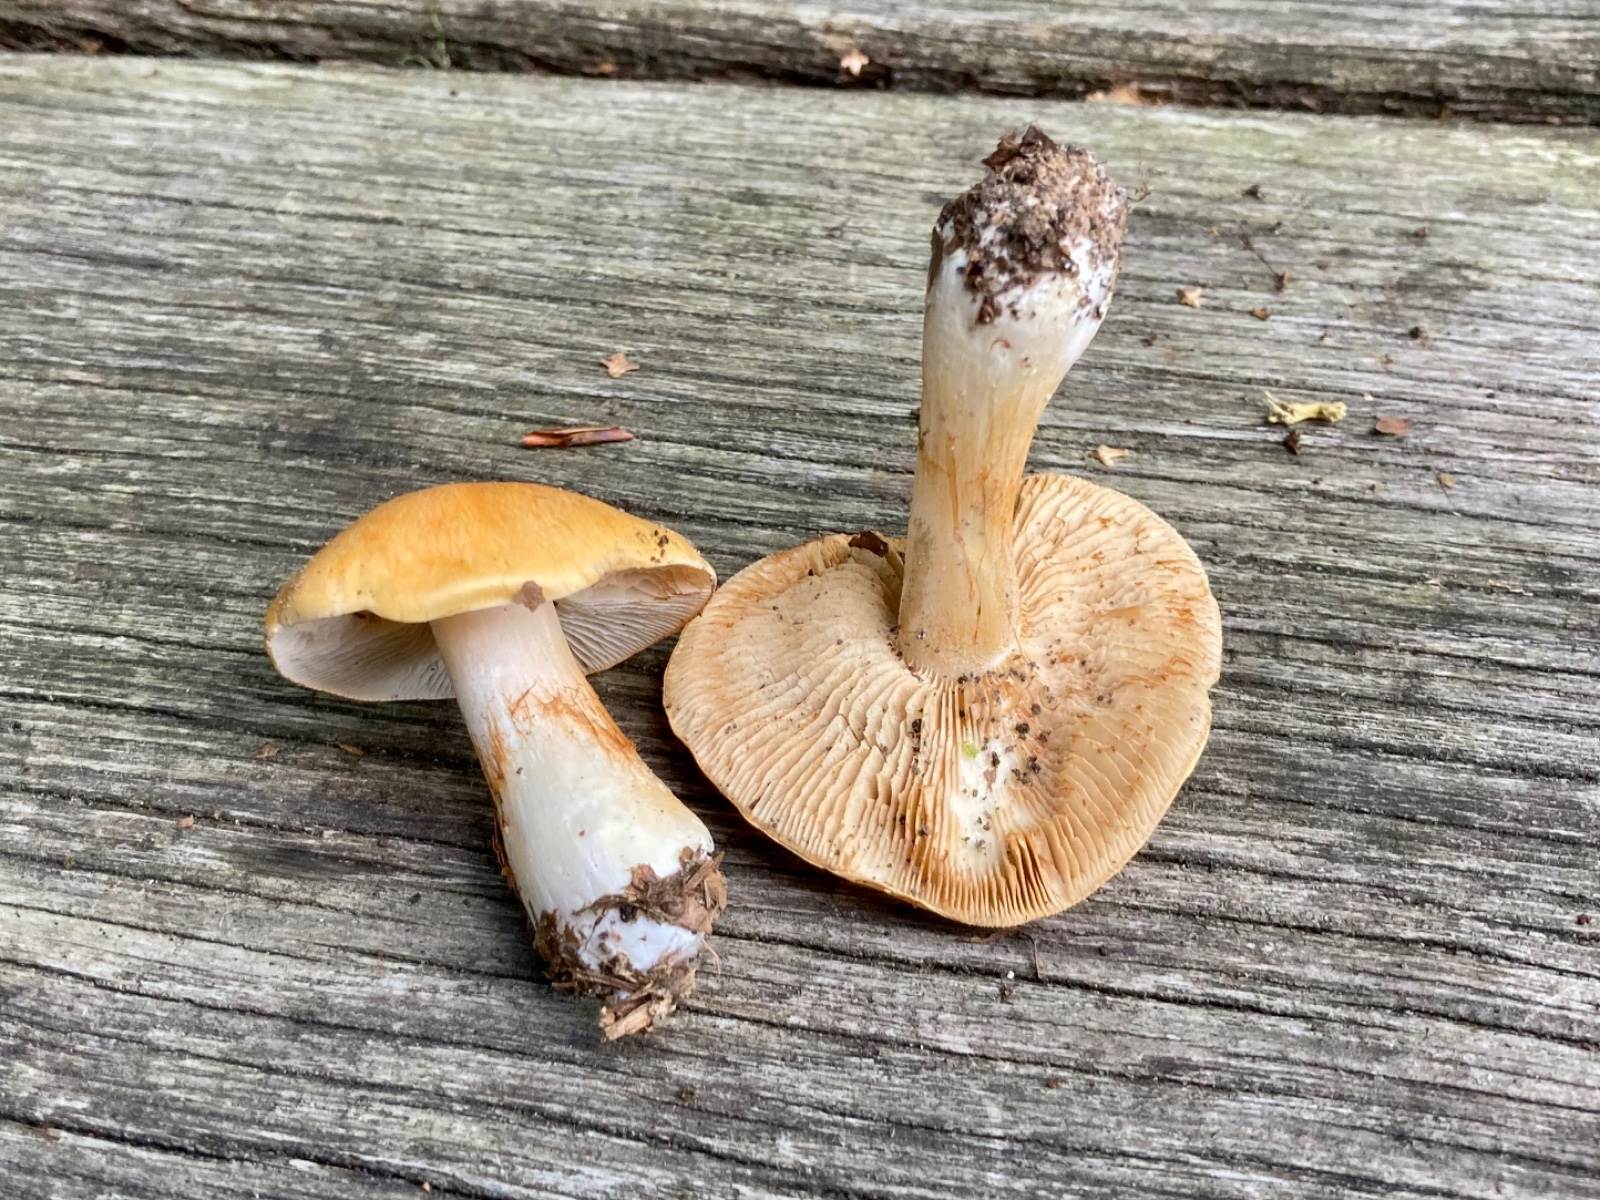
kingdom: Fungi
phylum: Basidiomycota
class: Agaricomycetes
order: Agaricales
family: Cortinariaceae
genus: Thaxterogaster
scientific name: Thaxterogaster emollitus
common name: besk slørhat
